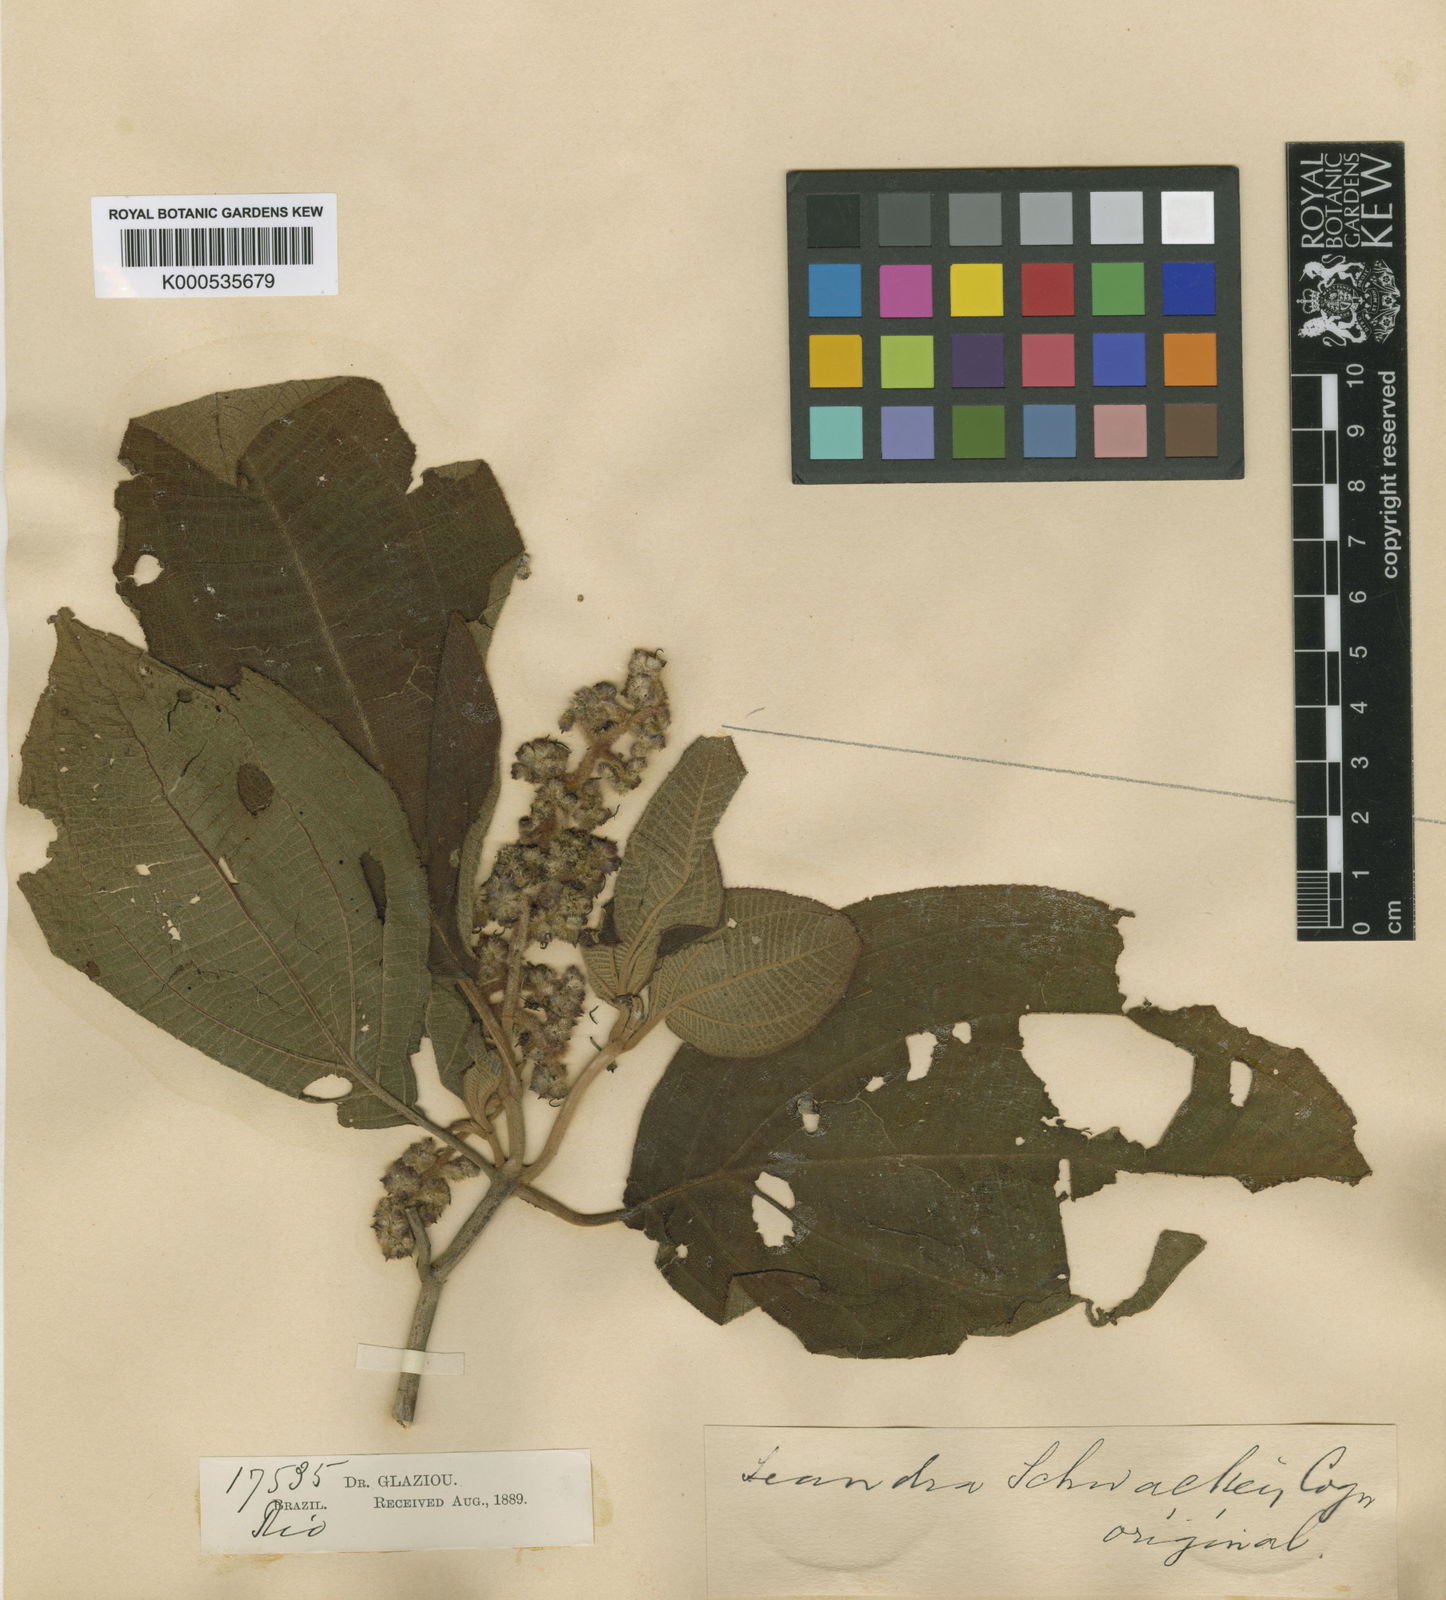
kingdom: Plantae
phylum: Tracheophyta
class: Magnoliopsida
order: Myrtales
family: Melastomataceae
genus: Miconia
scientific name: Miconia alterninervia
